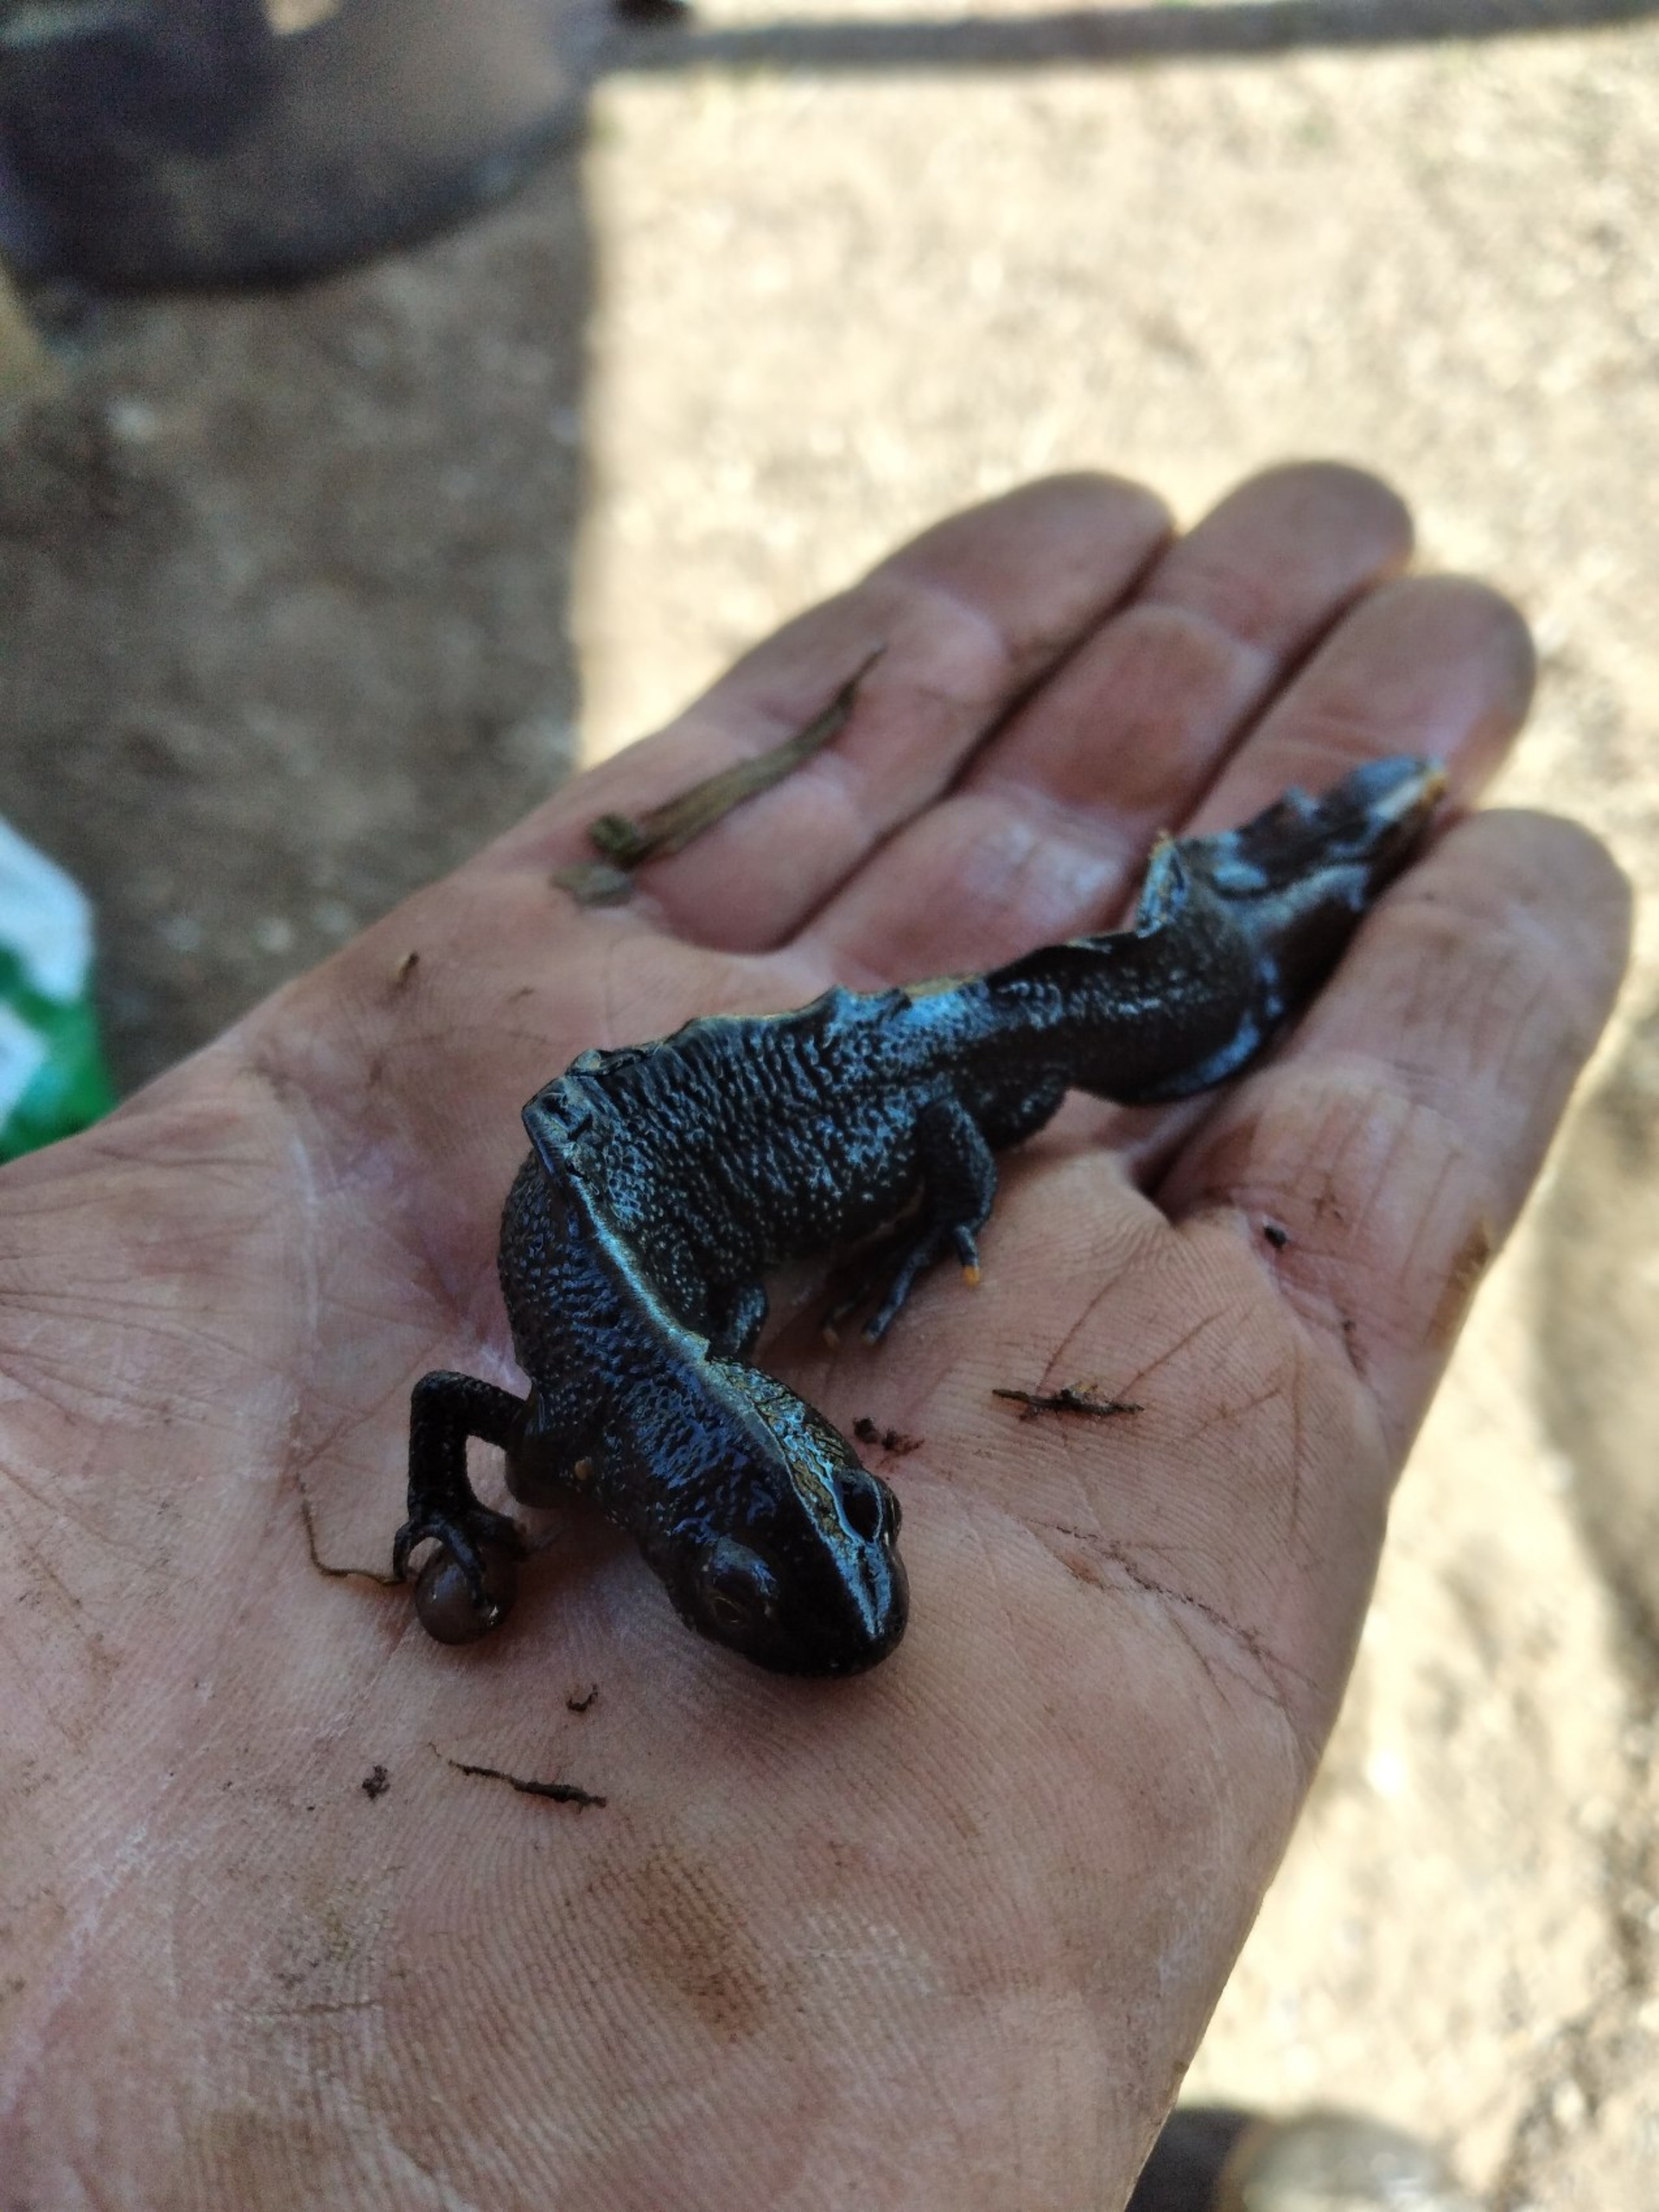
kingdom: Animalia
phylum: Chordata
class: Amphibia
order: Caudata
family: Salamandridae
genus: Triturus
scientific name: Triturus cristatus
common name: Stor vandsalamander
